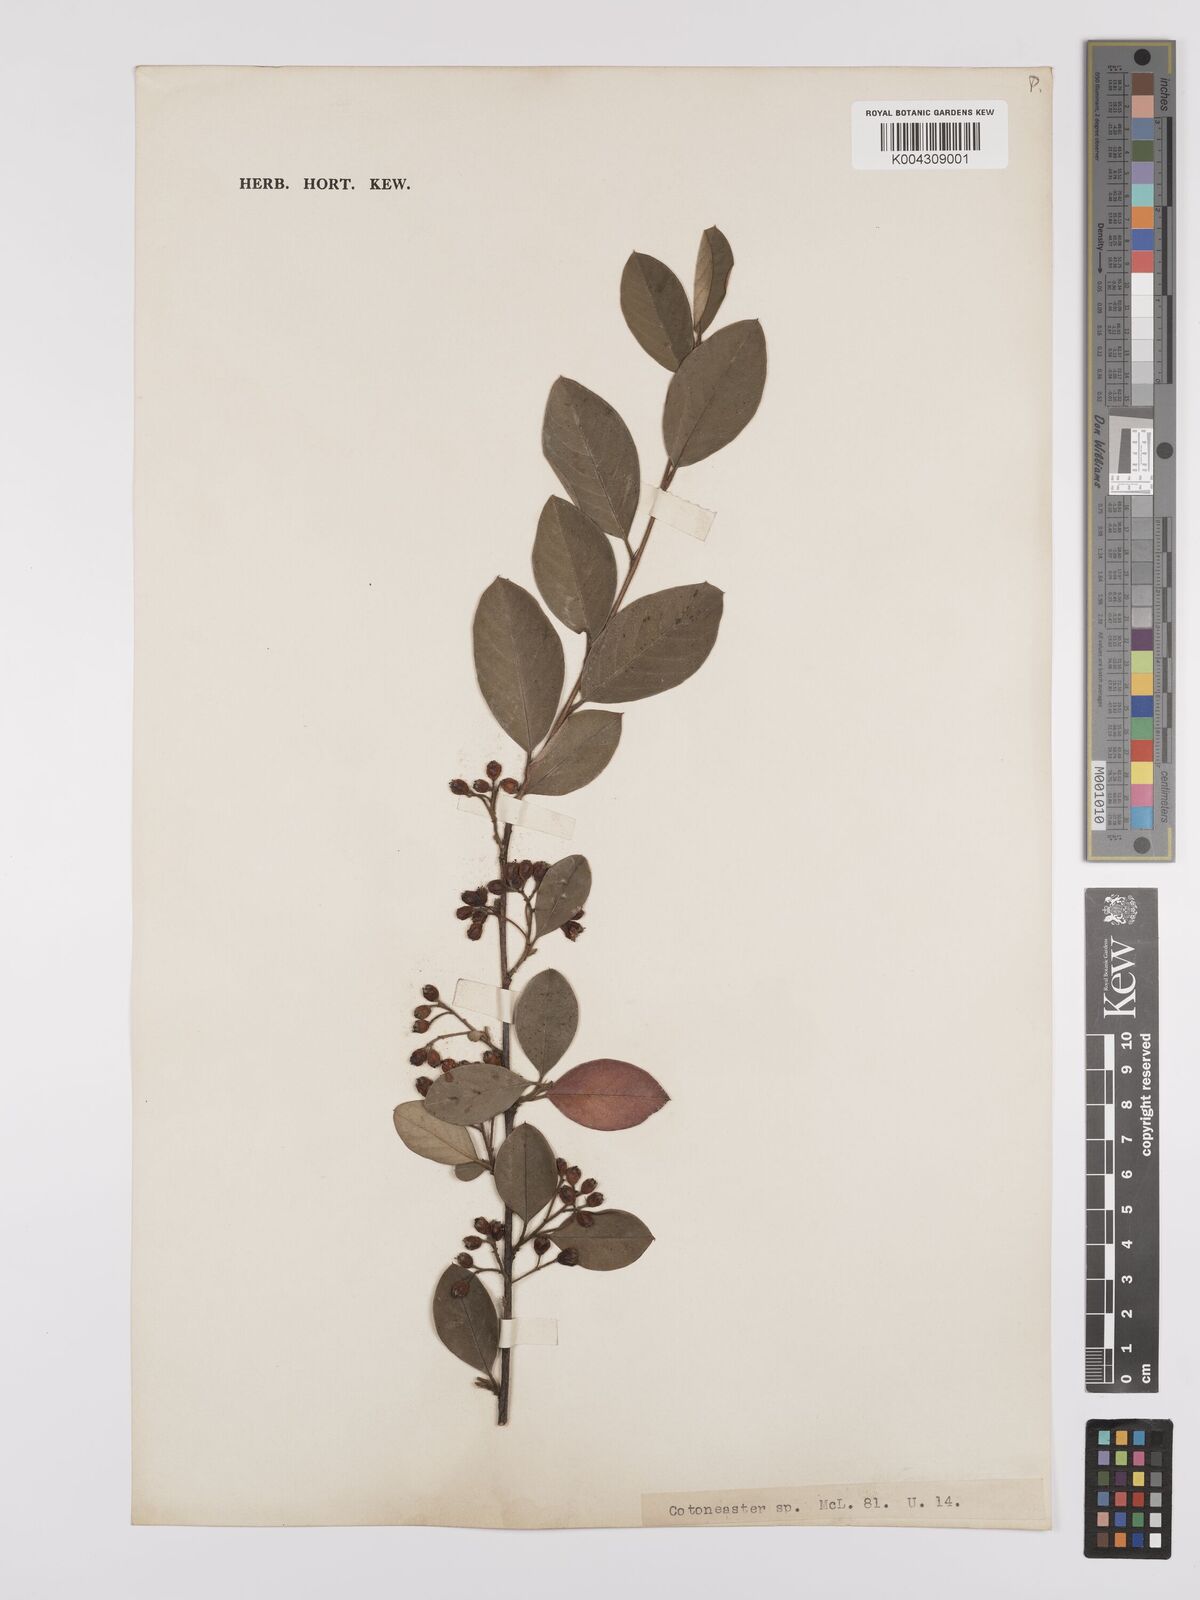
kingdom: Plantae
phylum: Tracheophyta
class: Magnoliopsida
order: Rosales
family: Rosaceae
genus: Cotoneaster
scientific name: Cotoneaster
